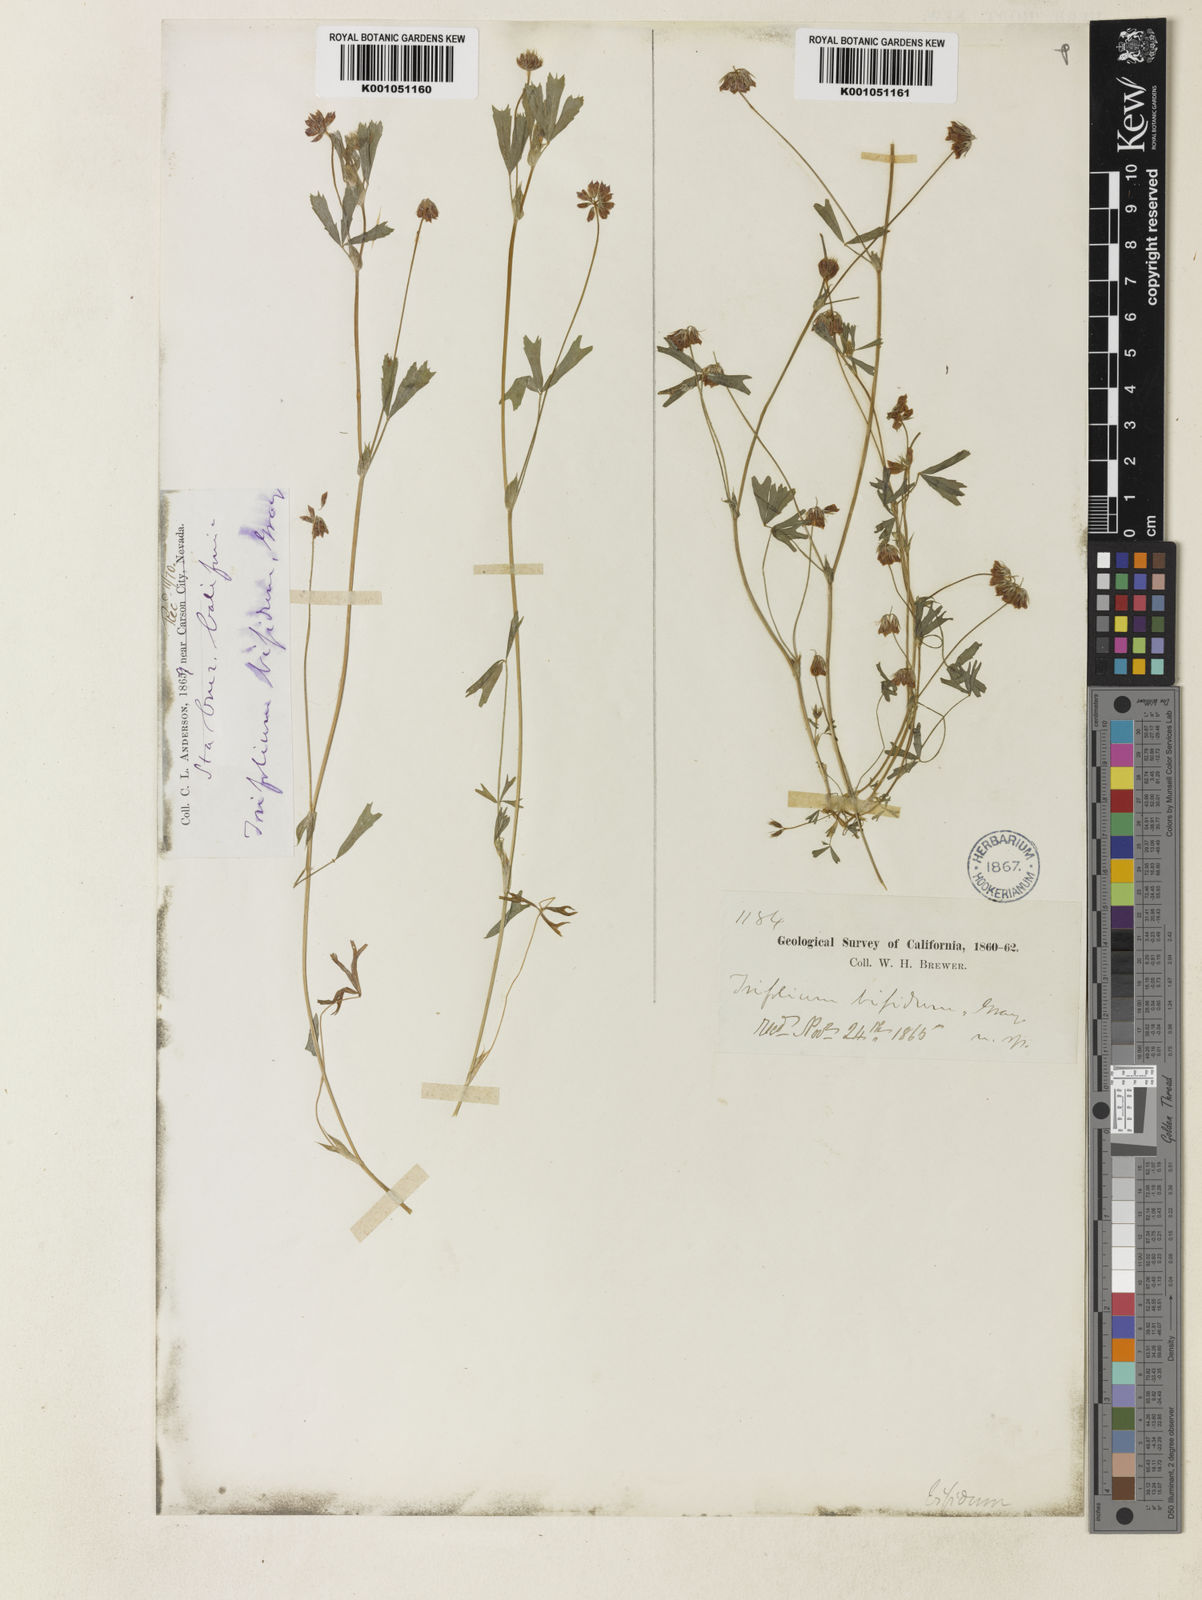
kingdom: Plantae
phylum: Tracheophyta
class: Magnoliopsida
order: Fabales
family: Fabaceae
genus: Trifolium
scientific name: Trifolium bifidum
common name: Notch-leaf clover
